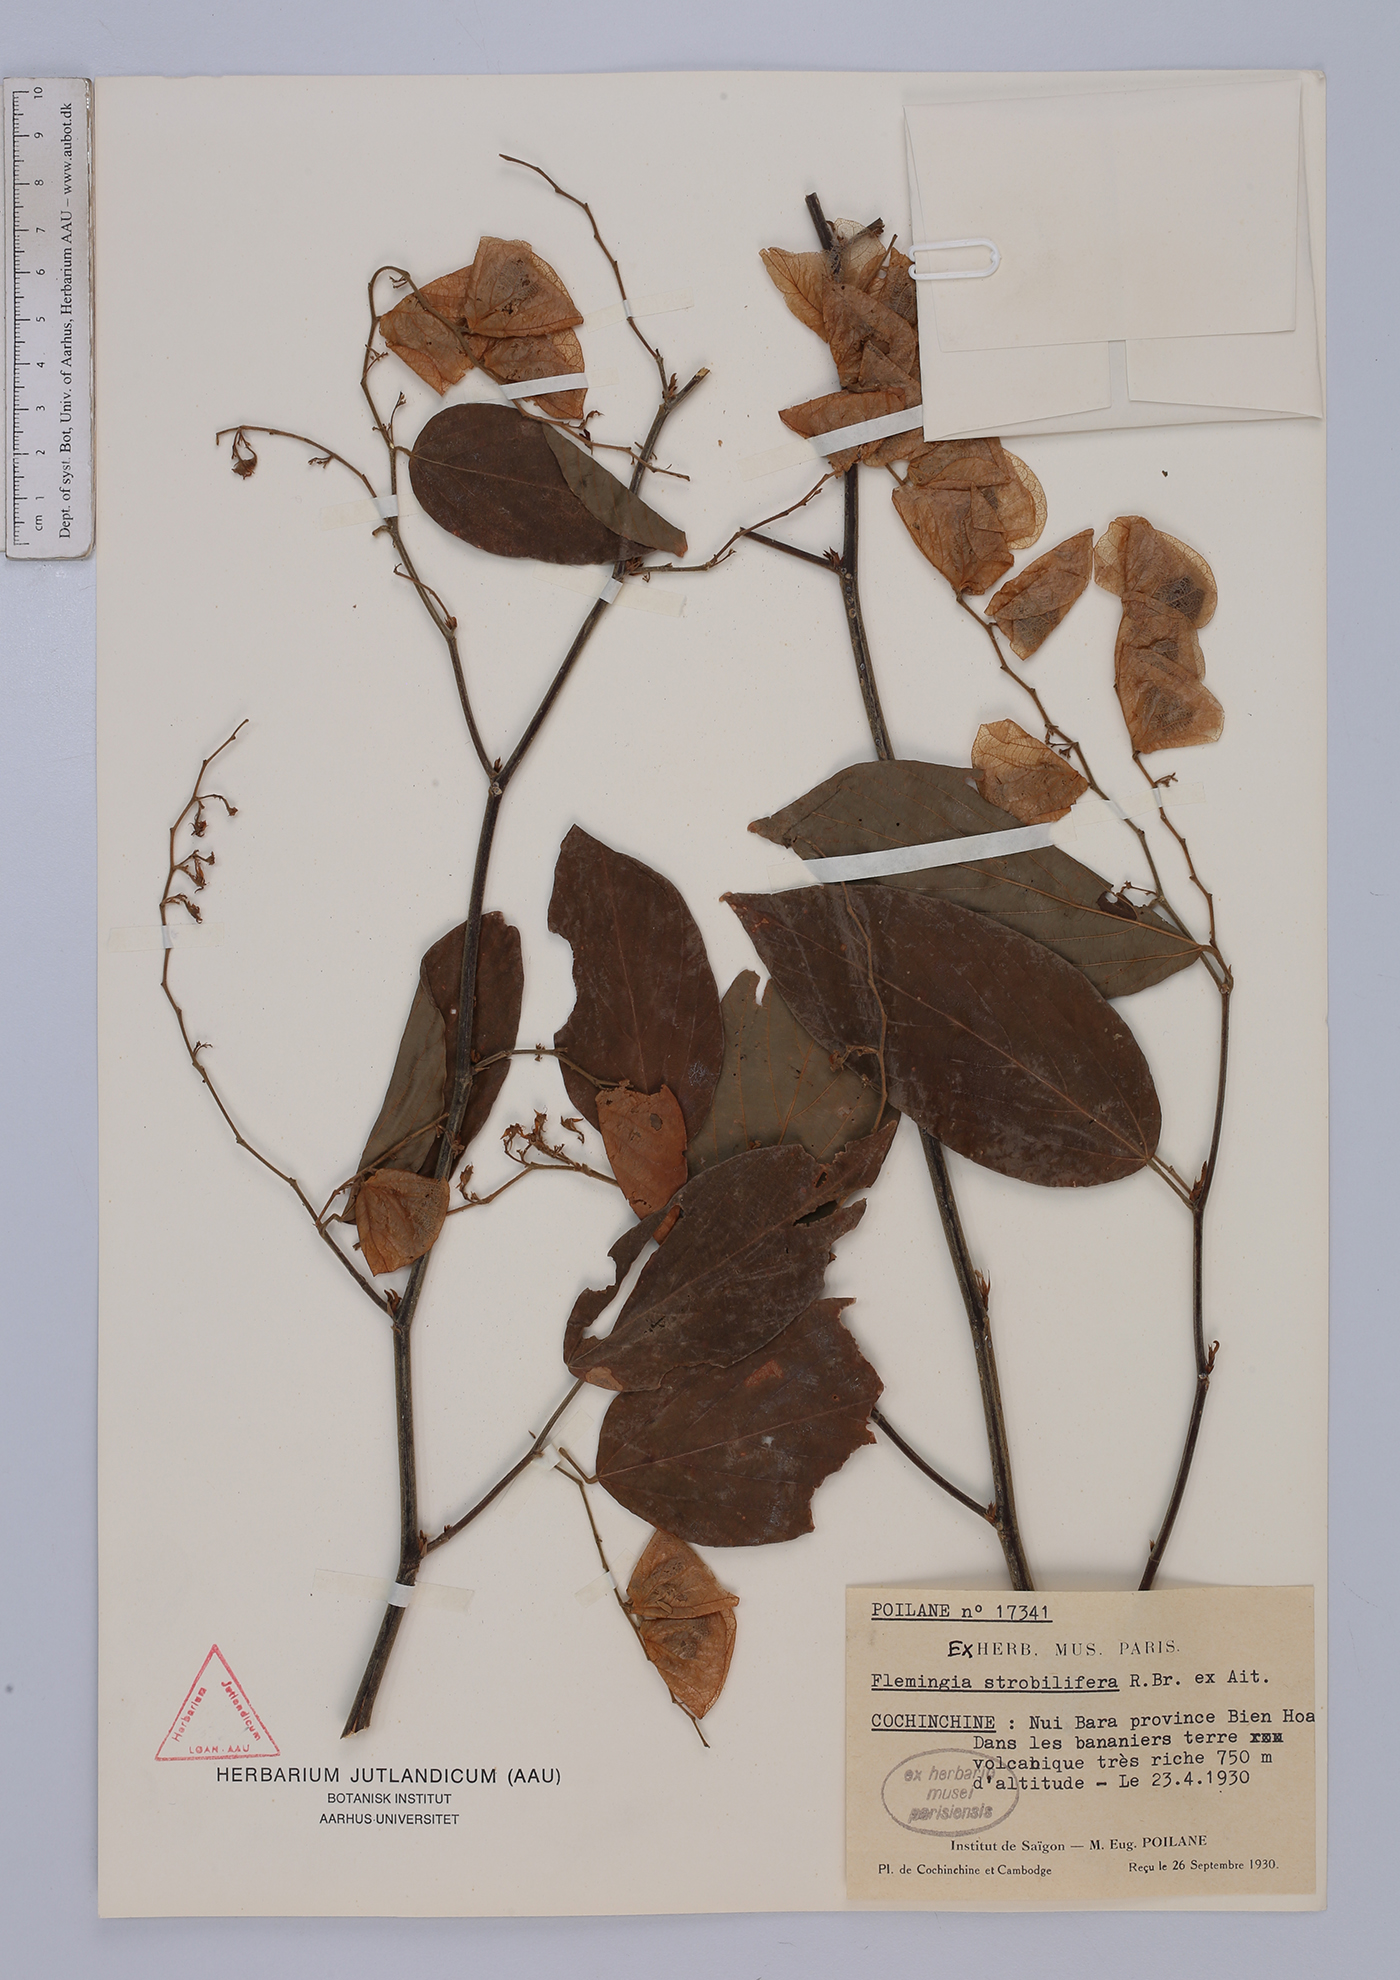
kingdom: Plantae
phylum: Tracheophyta
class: Magnoliopsida
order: Fabales
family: Fabaceae
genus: Flemingia
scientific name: Flemingia strobilifera
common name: Wild hops
